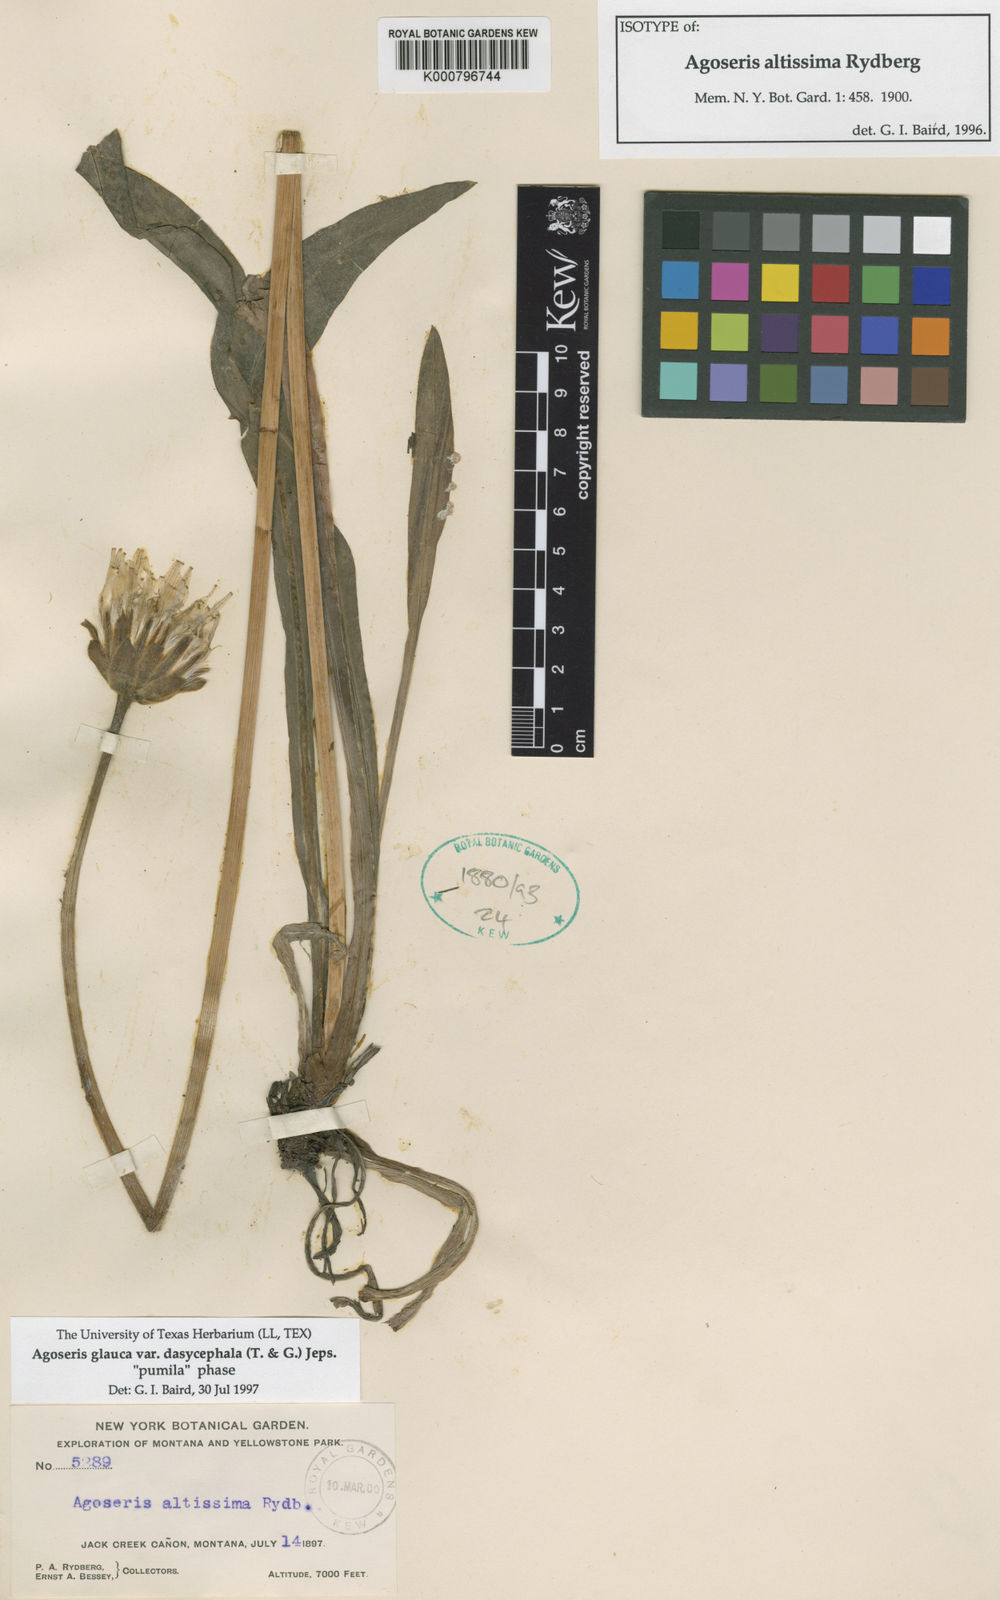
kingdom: Plantae
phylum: Tracheophyta
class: Magnoliopsida
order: Asterales
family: Asteraceae
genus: Agoseris
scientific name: Agoseris glauca
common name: Prairie agoseris
